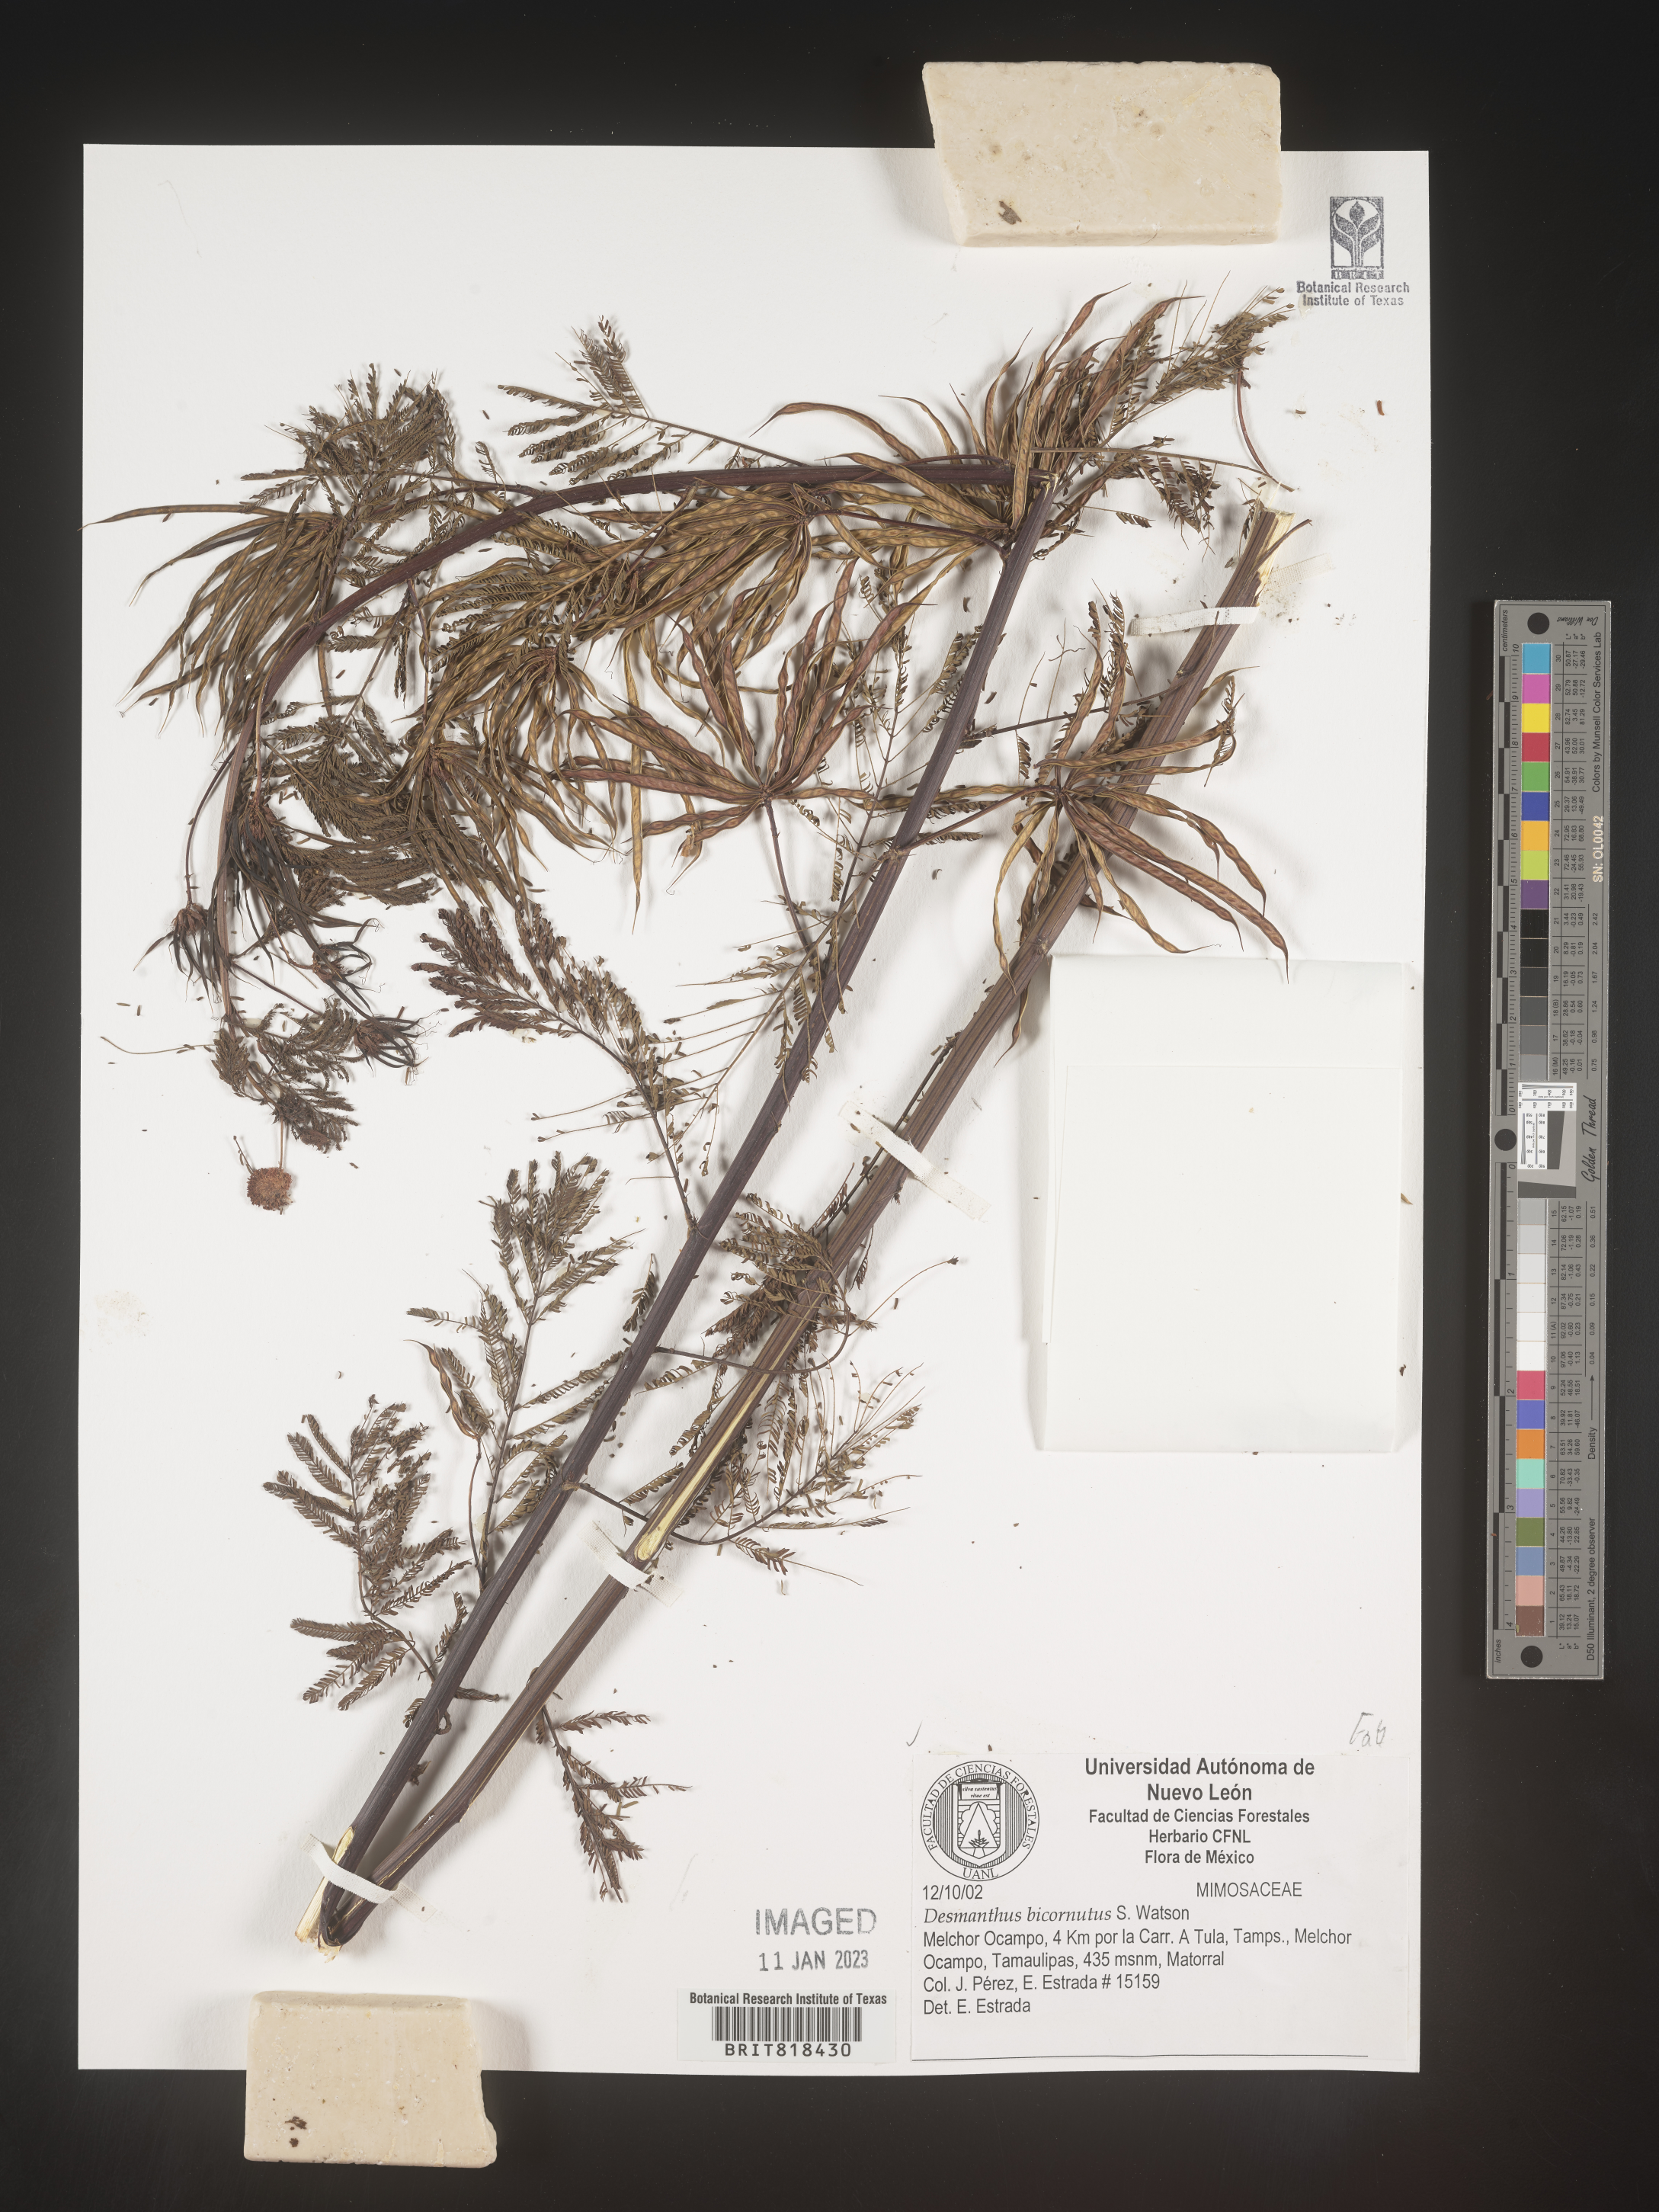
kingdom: Plantae
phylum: Tracheophyta
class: Magnoliopsida
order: Fabales
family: Fabaceae
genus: Desmanthus
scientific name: Desmanthus
